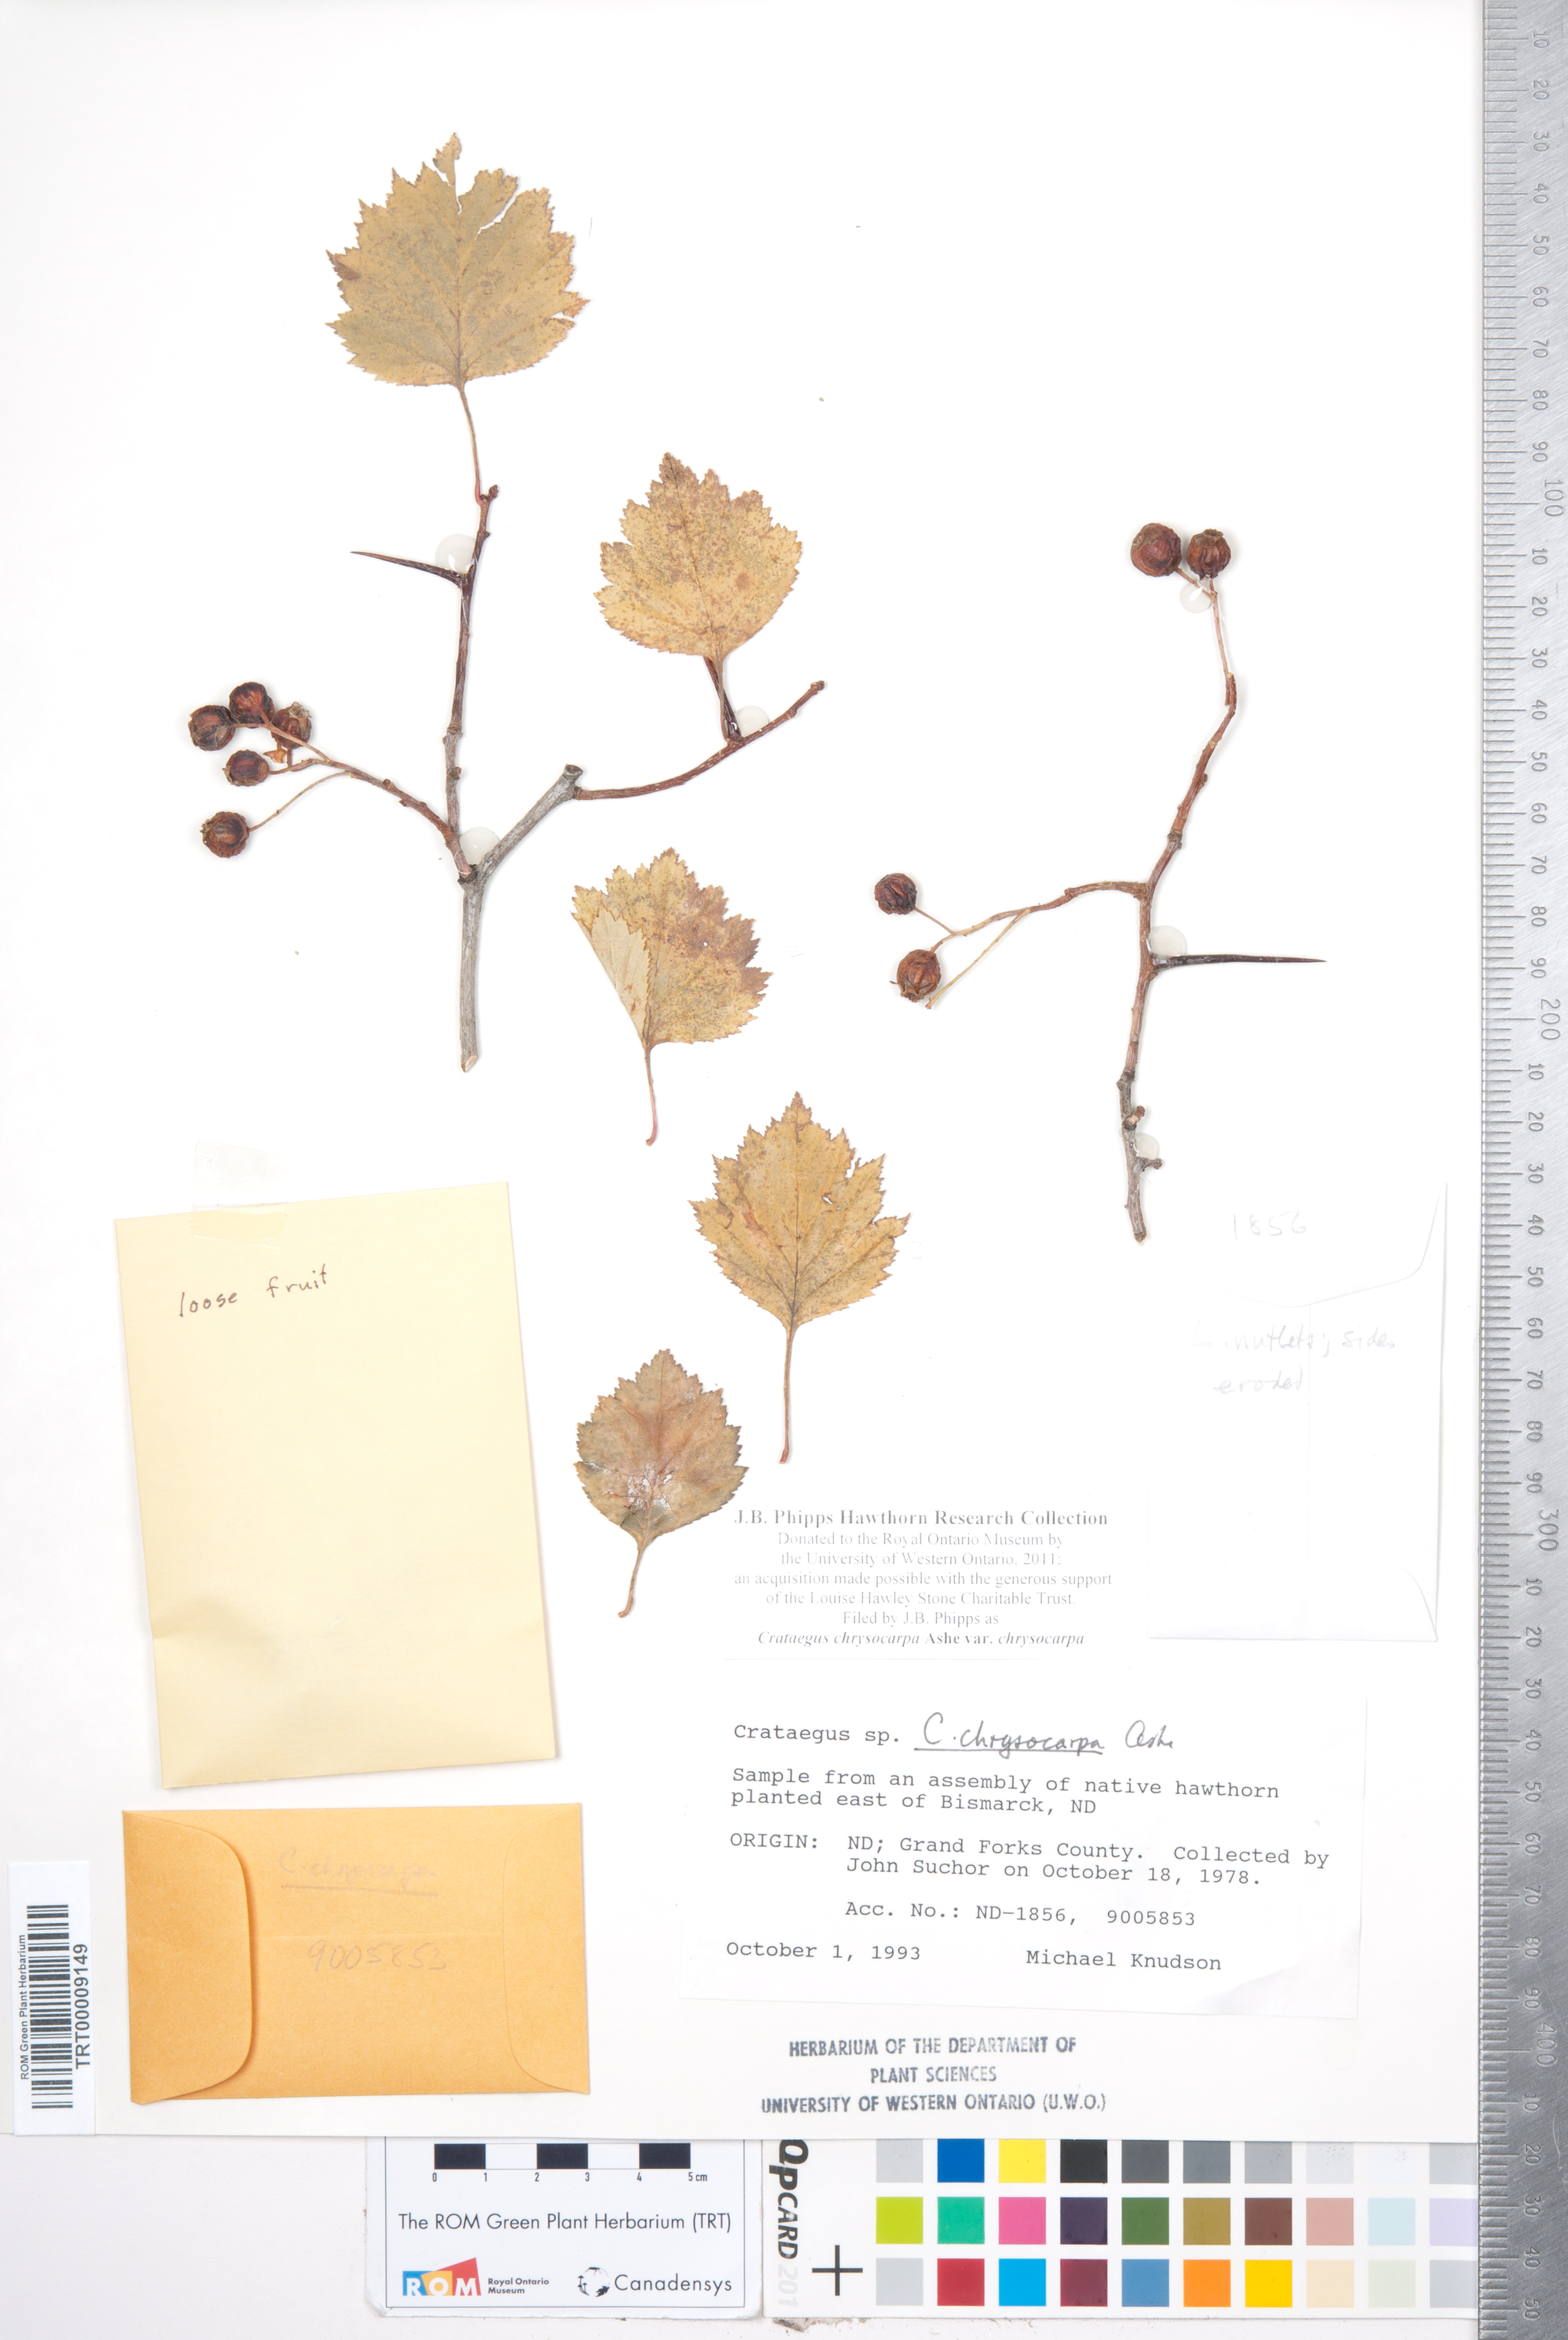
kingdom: Plantae
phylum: Tracheophyta
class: Magnoliopsida
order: Rosales
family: Rosaceae
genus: Crataegus
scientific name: Crataegus chrysocarpa
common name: Fire-berry hawthorn
